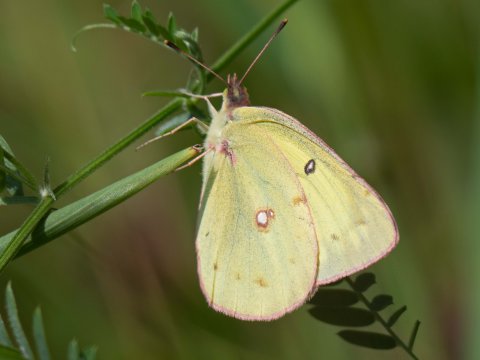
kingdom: Animalia
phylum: Arthropoda
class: Insecta
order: Lepidoptera
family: Pieridae
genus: Colias
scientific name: Colias philodice
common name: Clouded Sulphur
